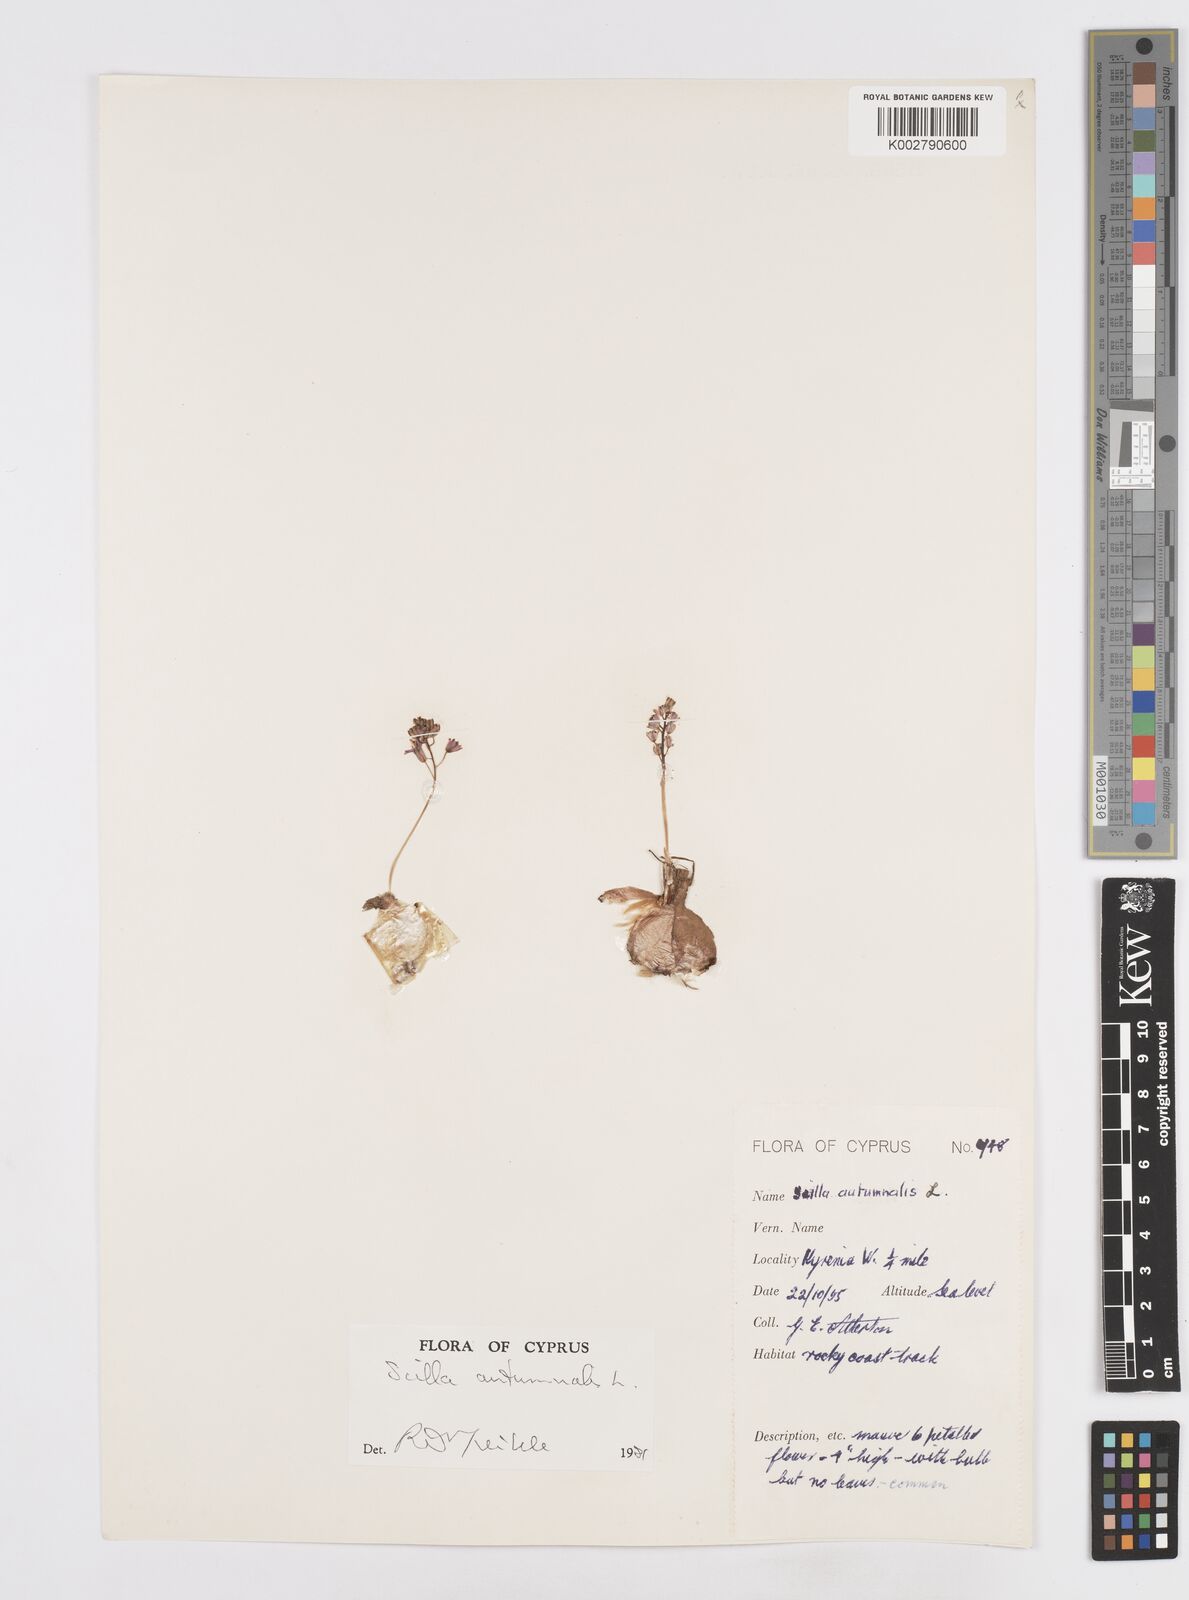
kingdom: Plantae
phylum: Tracheophyta
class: Liliopsida
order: Asparagales
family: Asparagaceae
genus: Prospero
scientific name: Prospero autumnale
